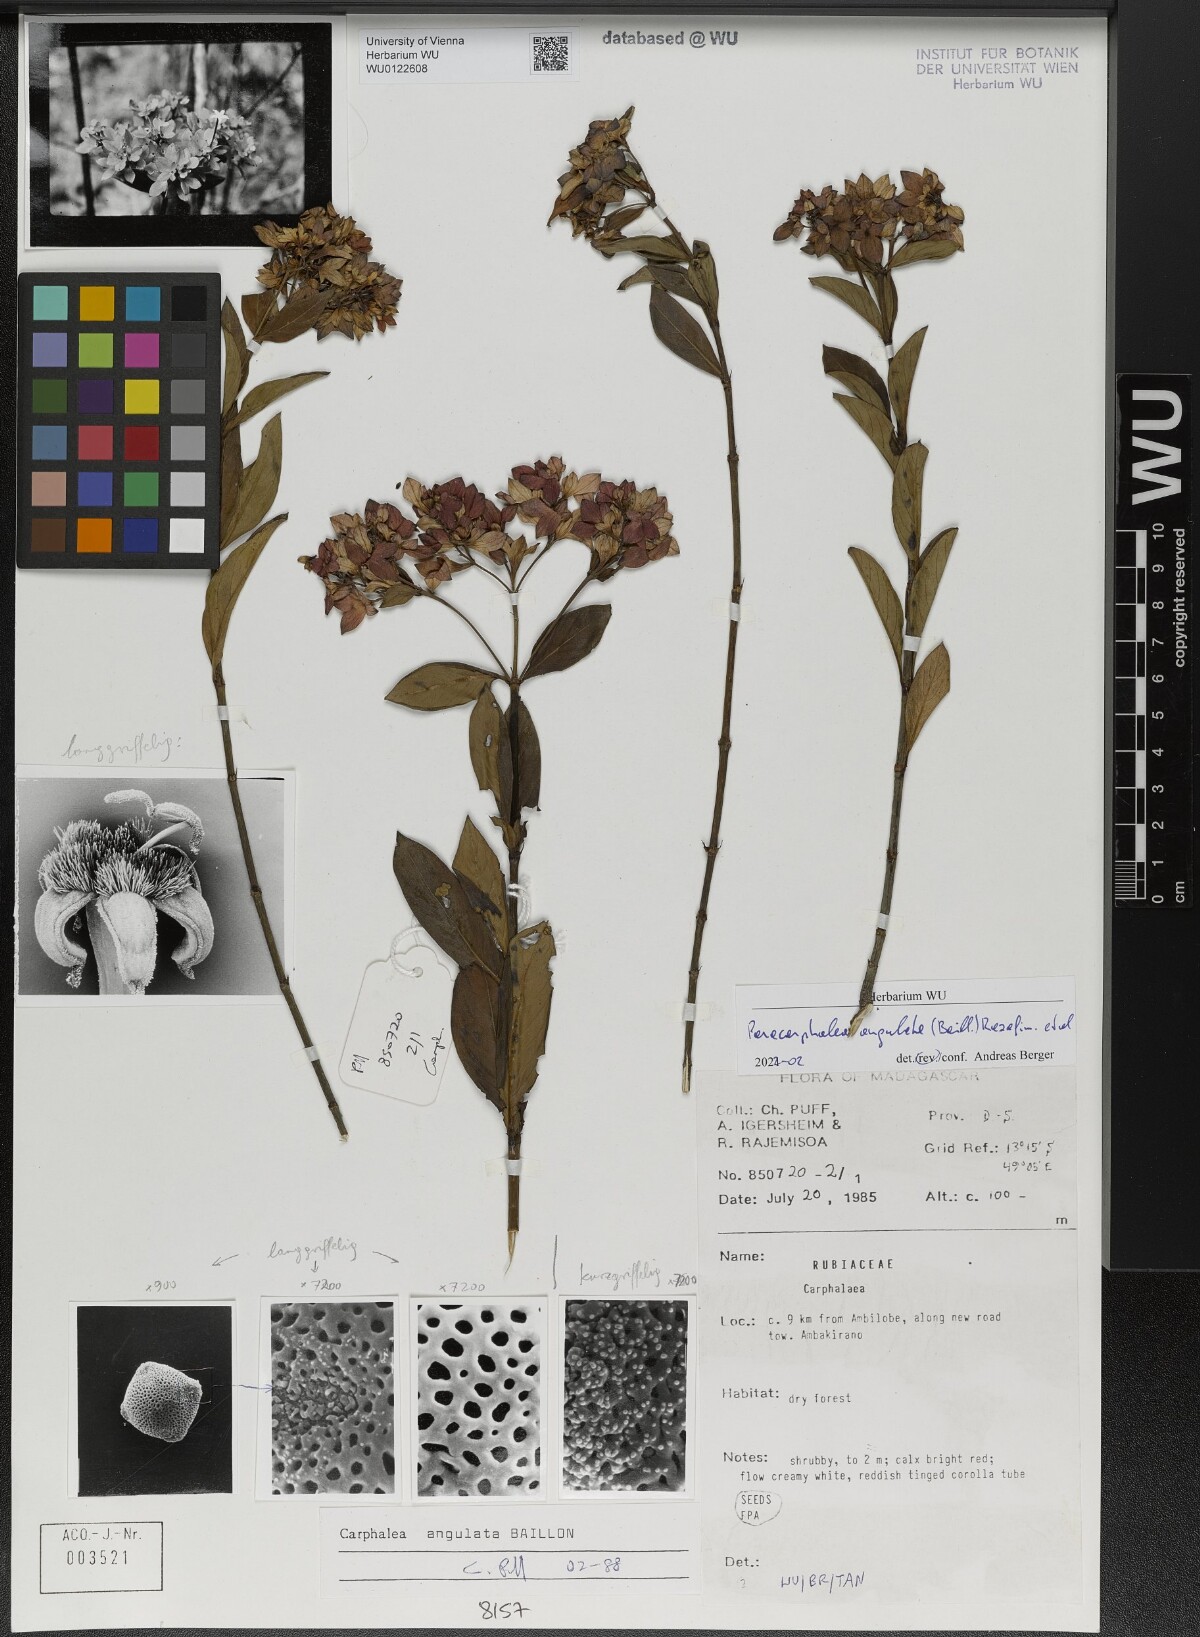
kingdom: Plantae
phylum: Tracheophyta
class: Magnoliopsida
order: Gentianales
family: Rubiaceae
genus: Paracarphalea
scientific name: Paracarphalea angulata
